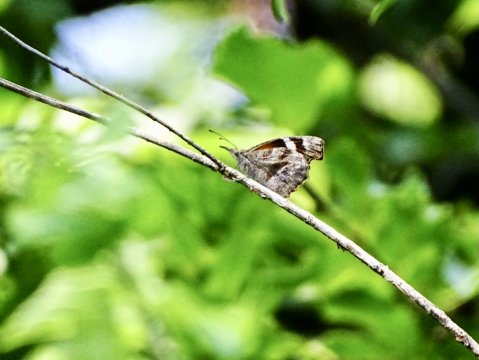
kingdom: Animalia
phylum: Arthropoda
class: Insecta
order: Lepidoptera
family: Nymphalidae
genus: Libytheana
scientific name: Libytheana carinenta
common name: American Snout
